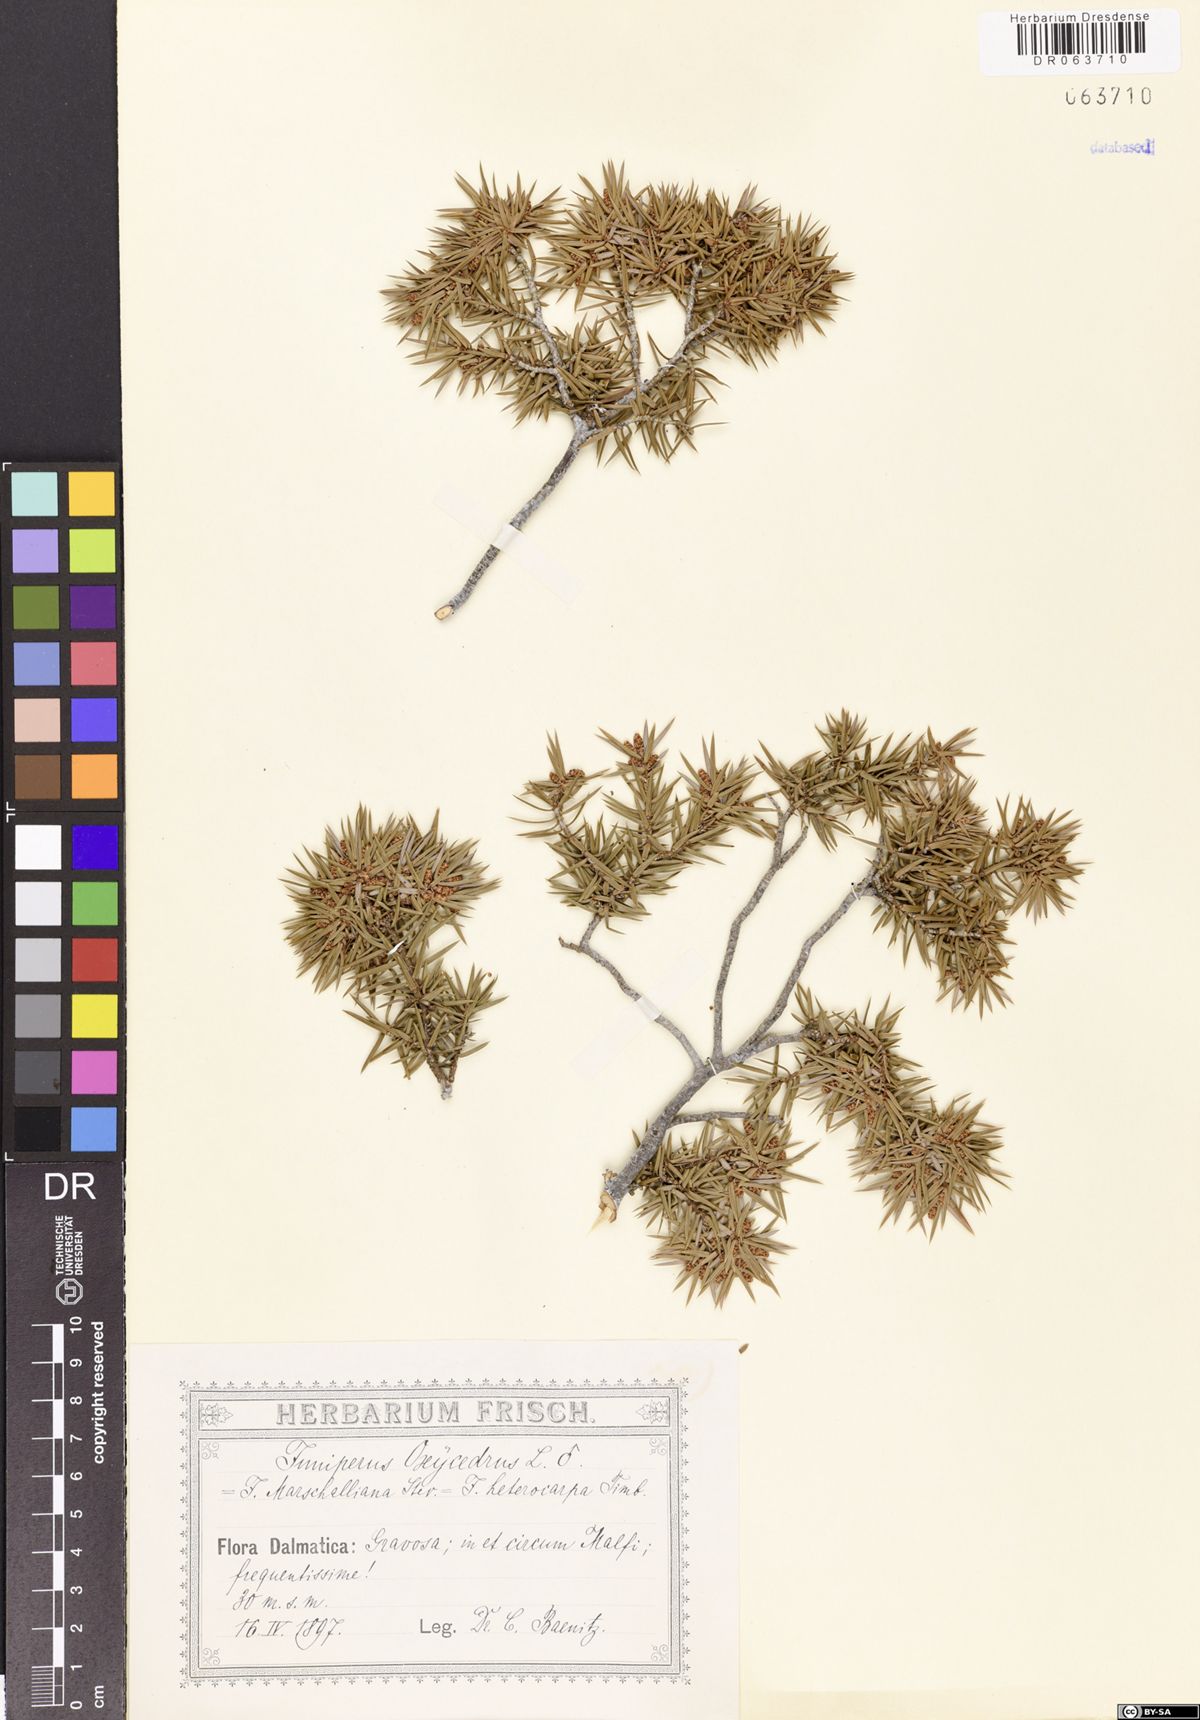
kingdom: Plantae
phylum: Tracheophyta
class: Pinopsida
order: Pinales
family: Cupressaceae
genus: Juniperus
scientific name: Juniperus oxycedrus
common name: Prickly juniper
